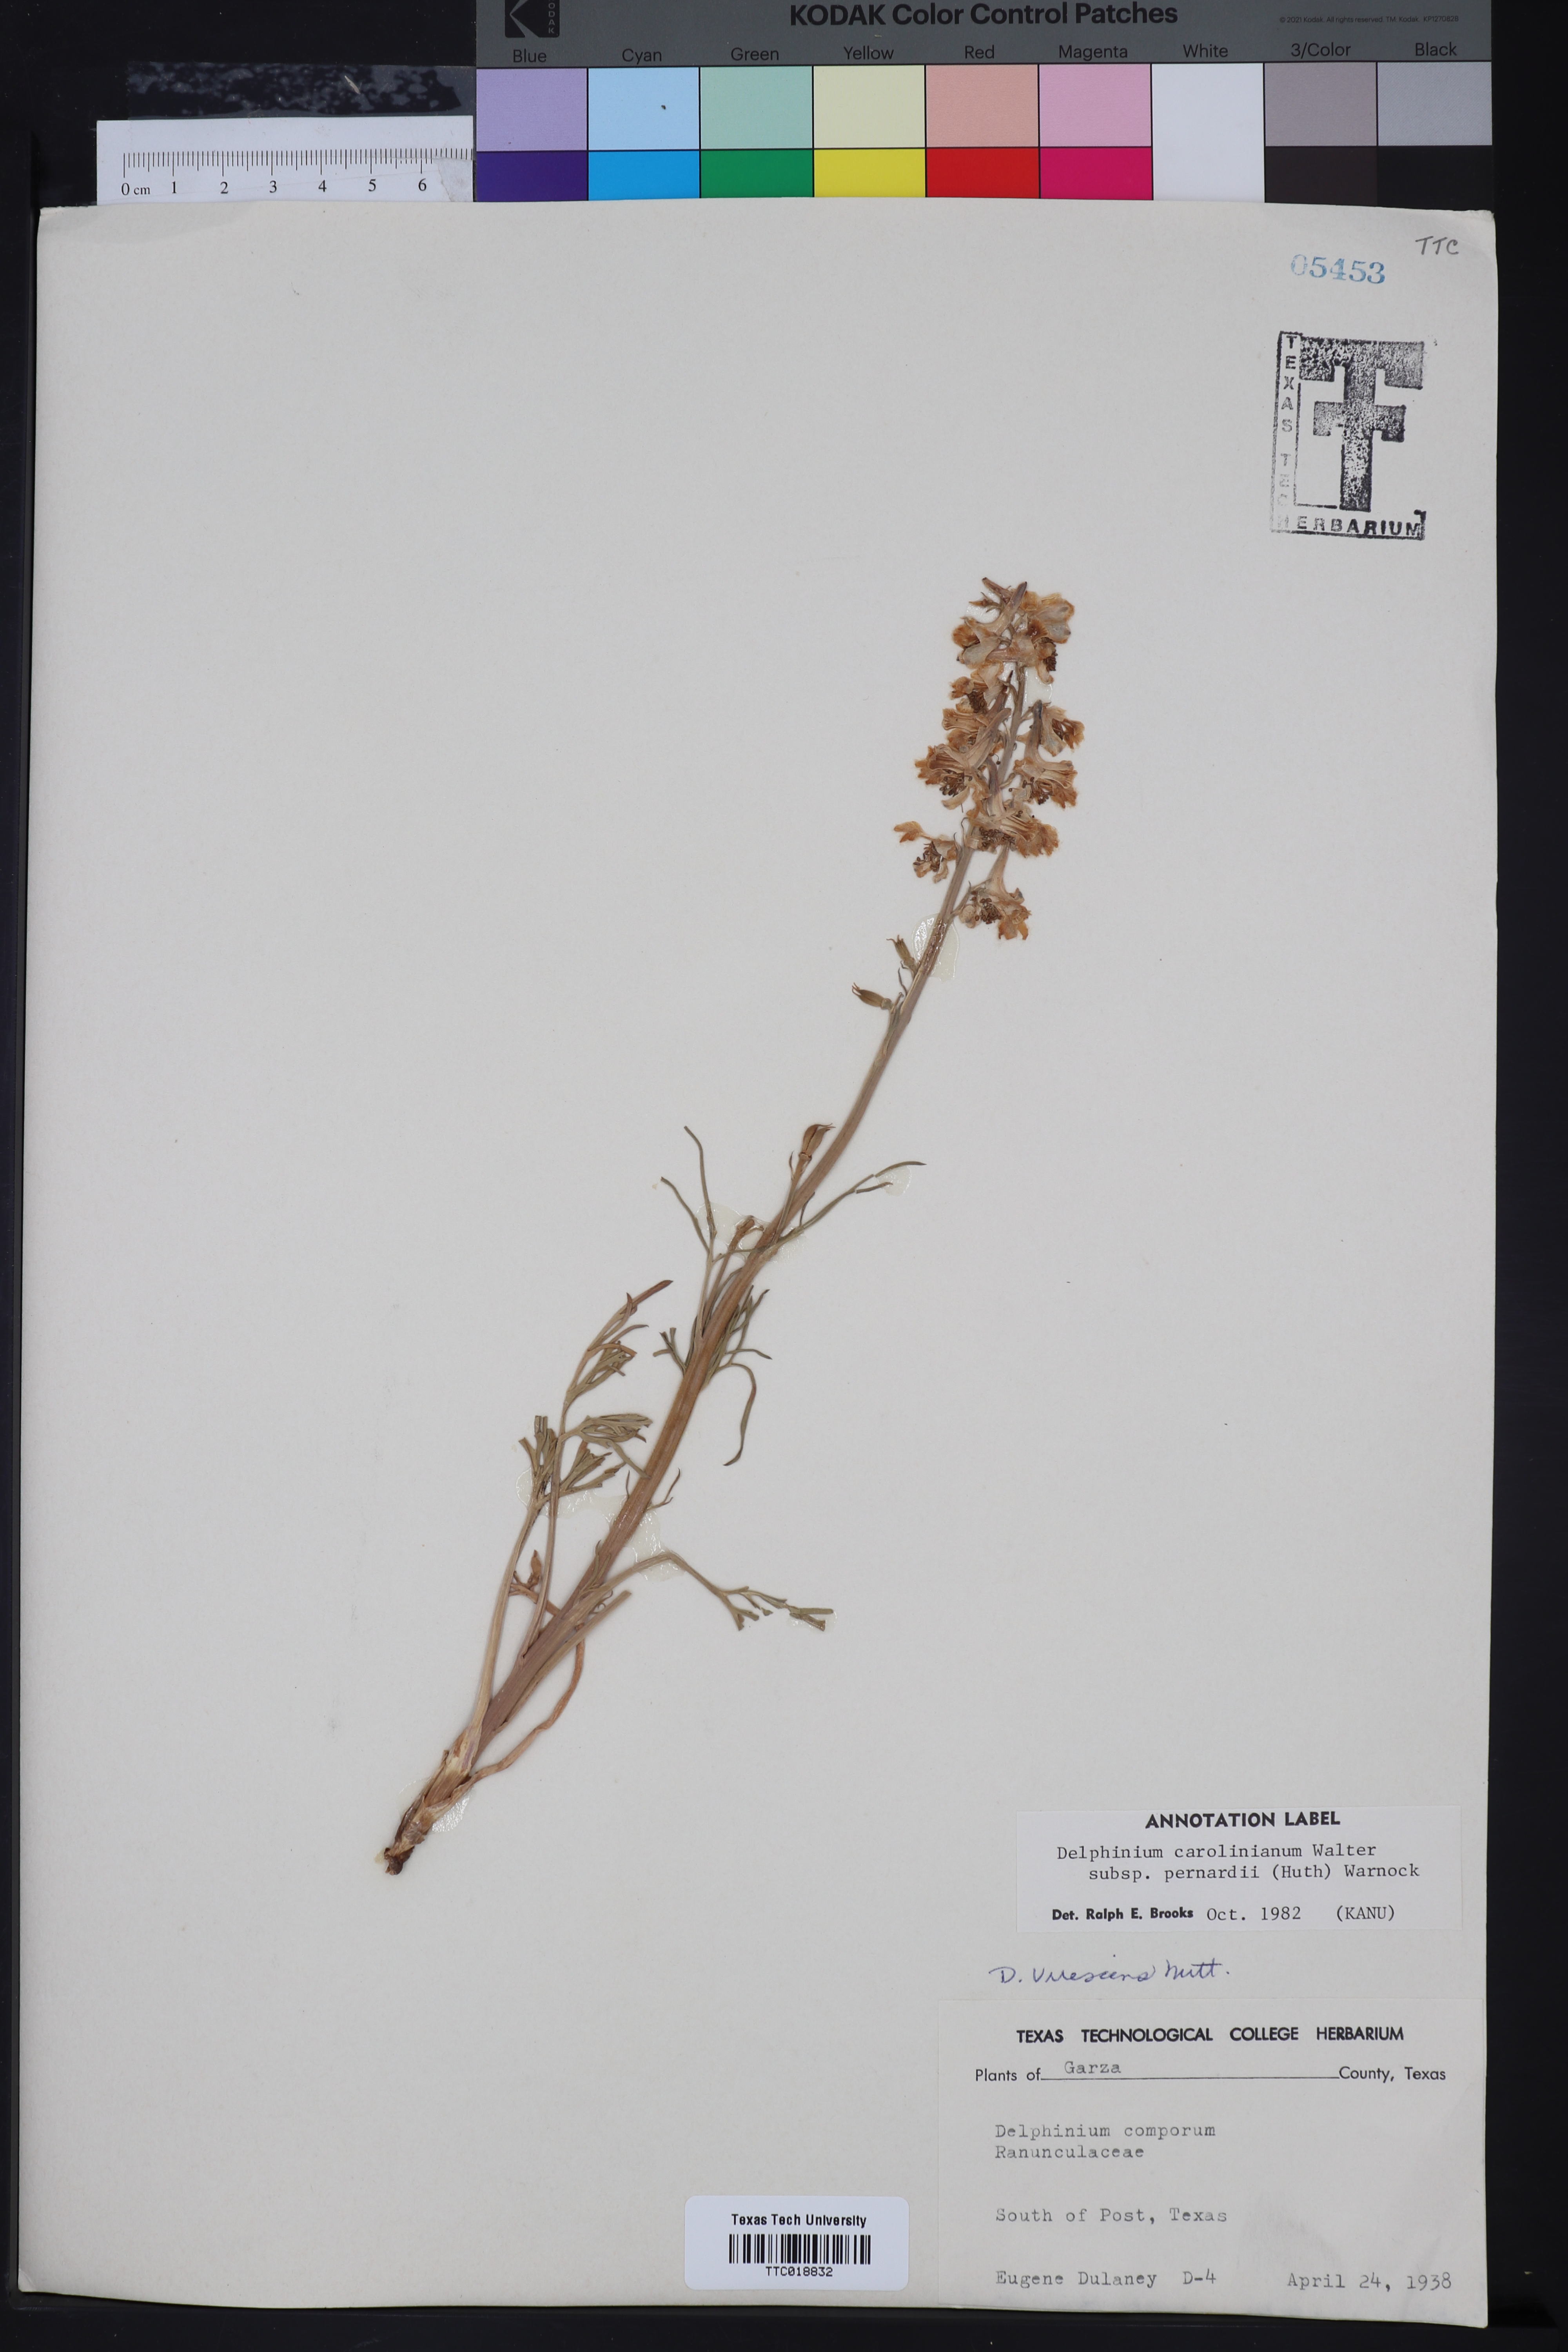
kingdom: Plantae
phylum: Tracheophyta
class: Magnoliopsida
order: Ranunculales
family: Ranunculaceae
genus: Delphinium
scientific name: Delphinium carolinianum
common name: Carolina larkspur
